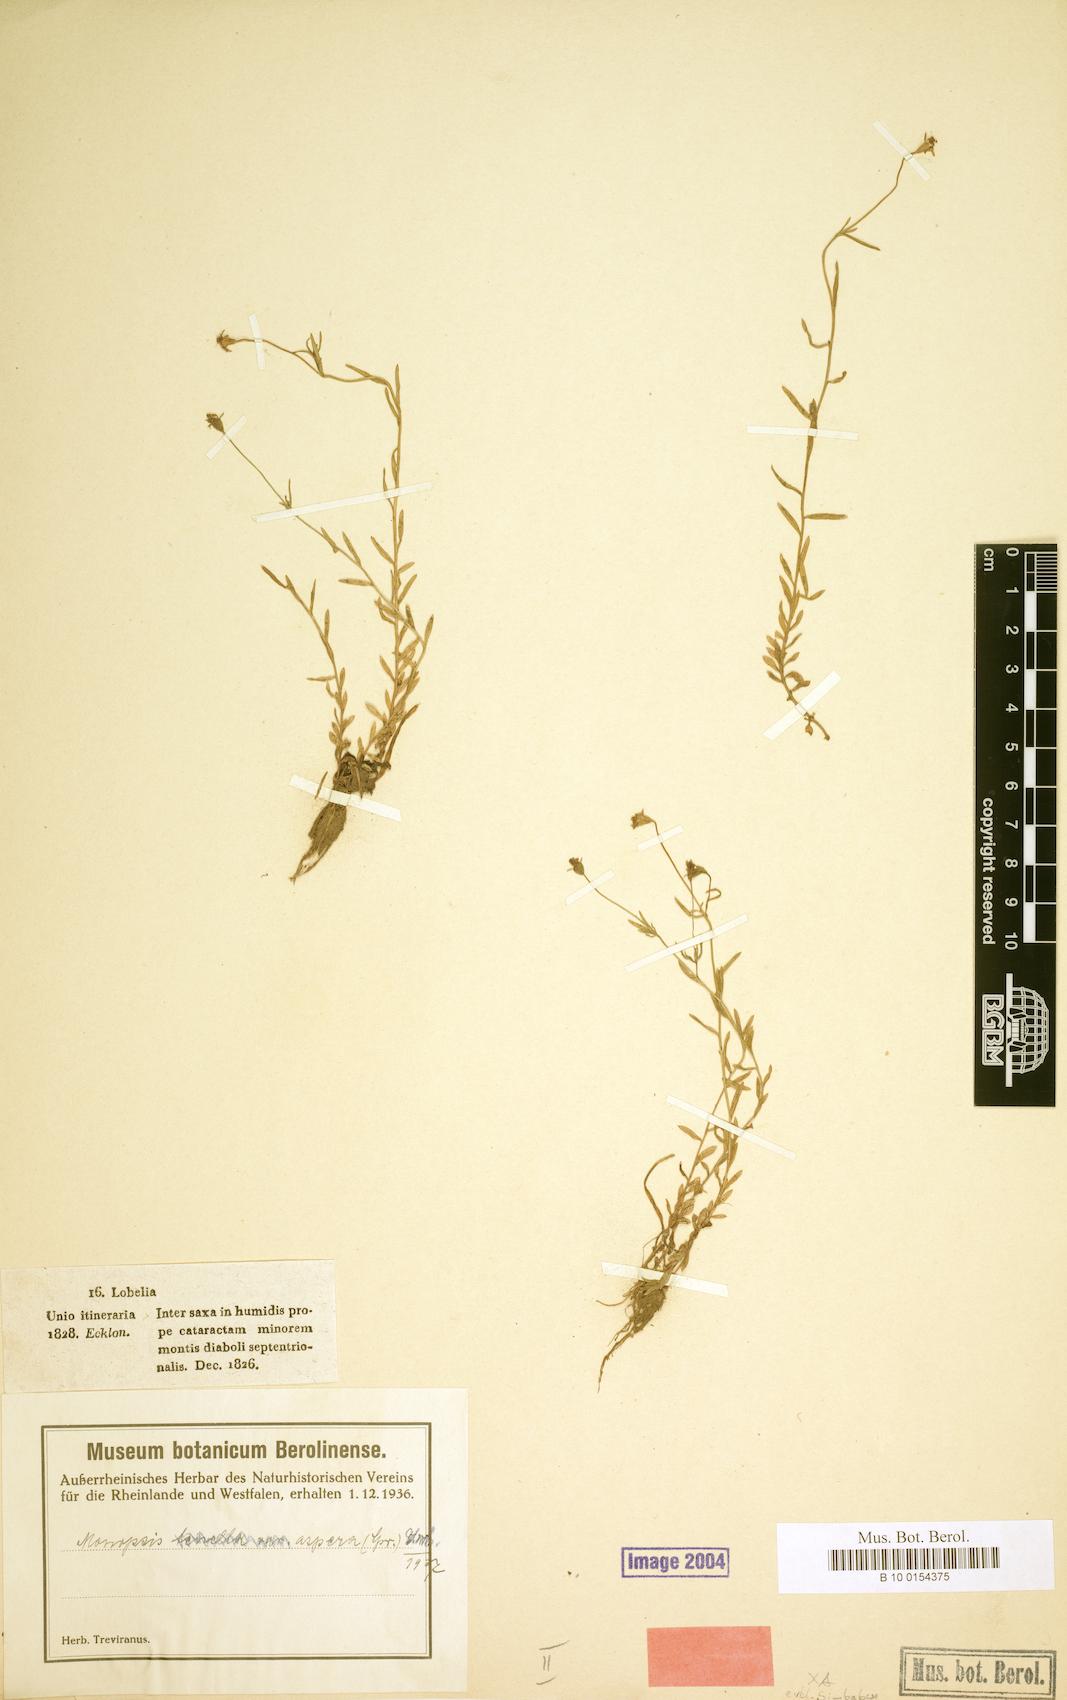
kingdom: Plantae
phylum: Tracheophyta
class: Magnoliopsida
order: Asterales
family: Campanulaceae
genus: Monopsis
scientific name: Monopsis simplex
